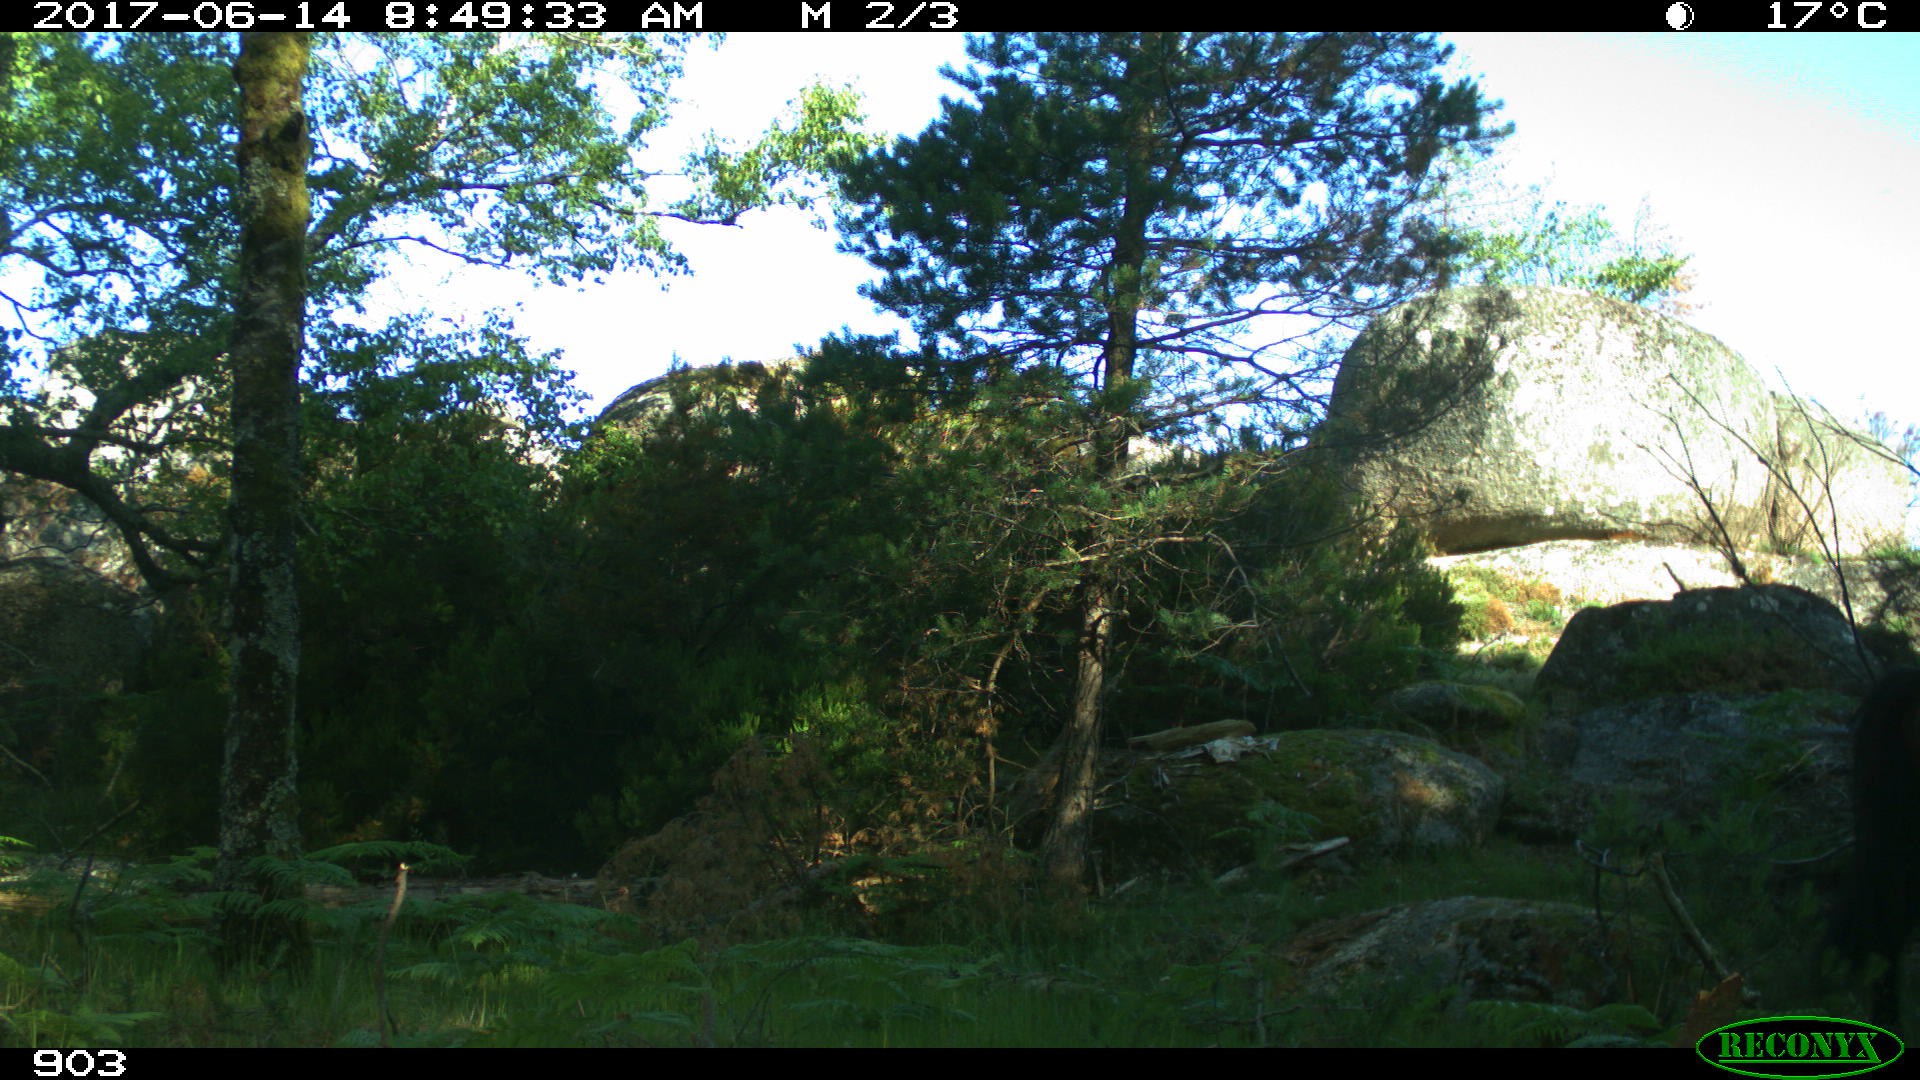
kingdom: Animalia
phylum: Chordata
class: Mammalia
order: Perissodactyla
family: Equidae
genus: Equus
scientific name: Equus caballus
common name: Horse
